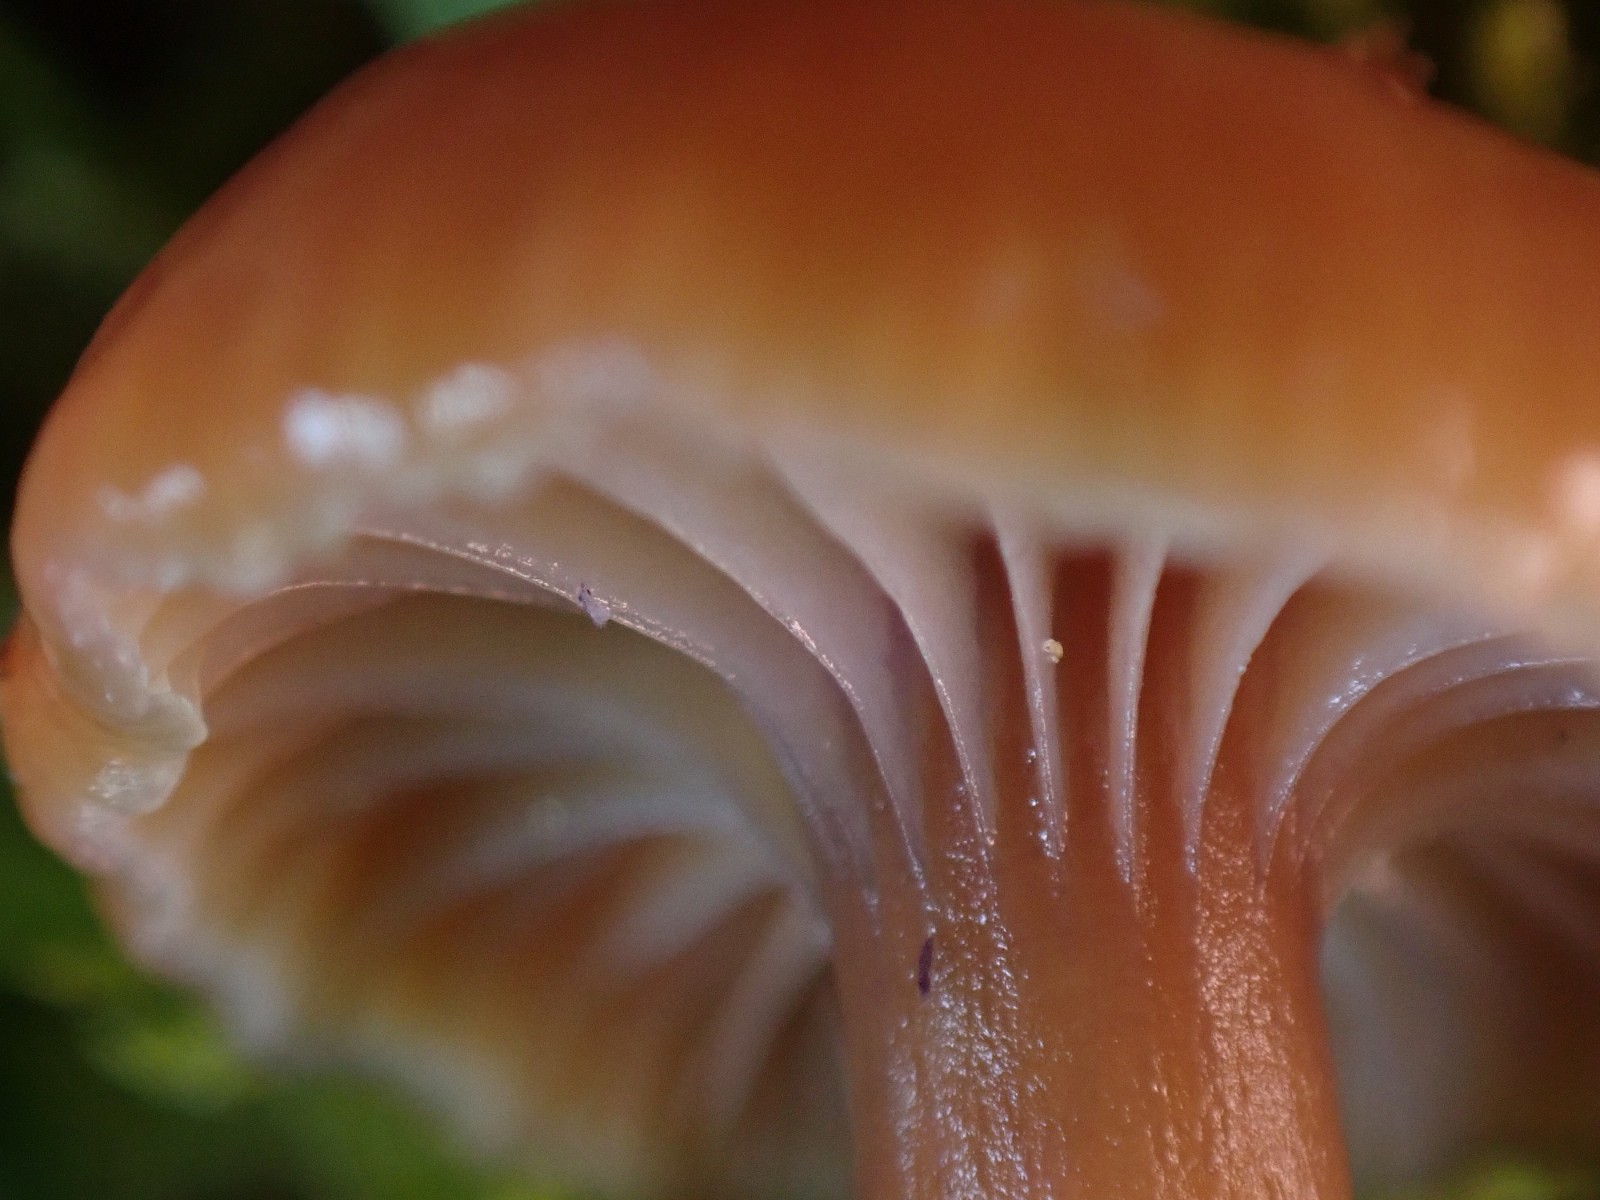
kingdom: Fungi
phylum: Basidiomycota
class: Agaricomycetes
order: Agaricales
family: Hygrophoraceae
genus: Gliophorus
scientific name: Gliophorus laetus
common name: brusk-vokshat
